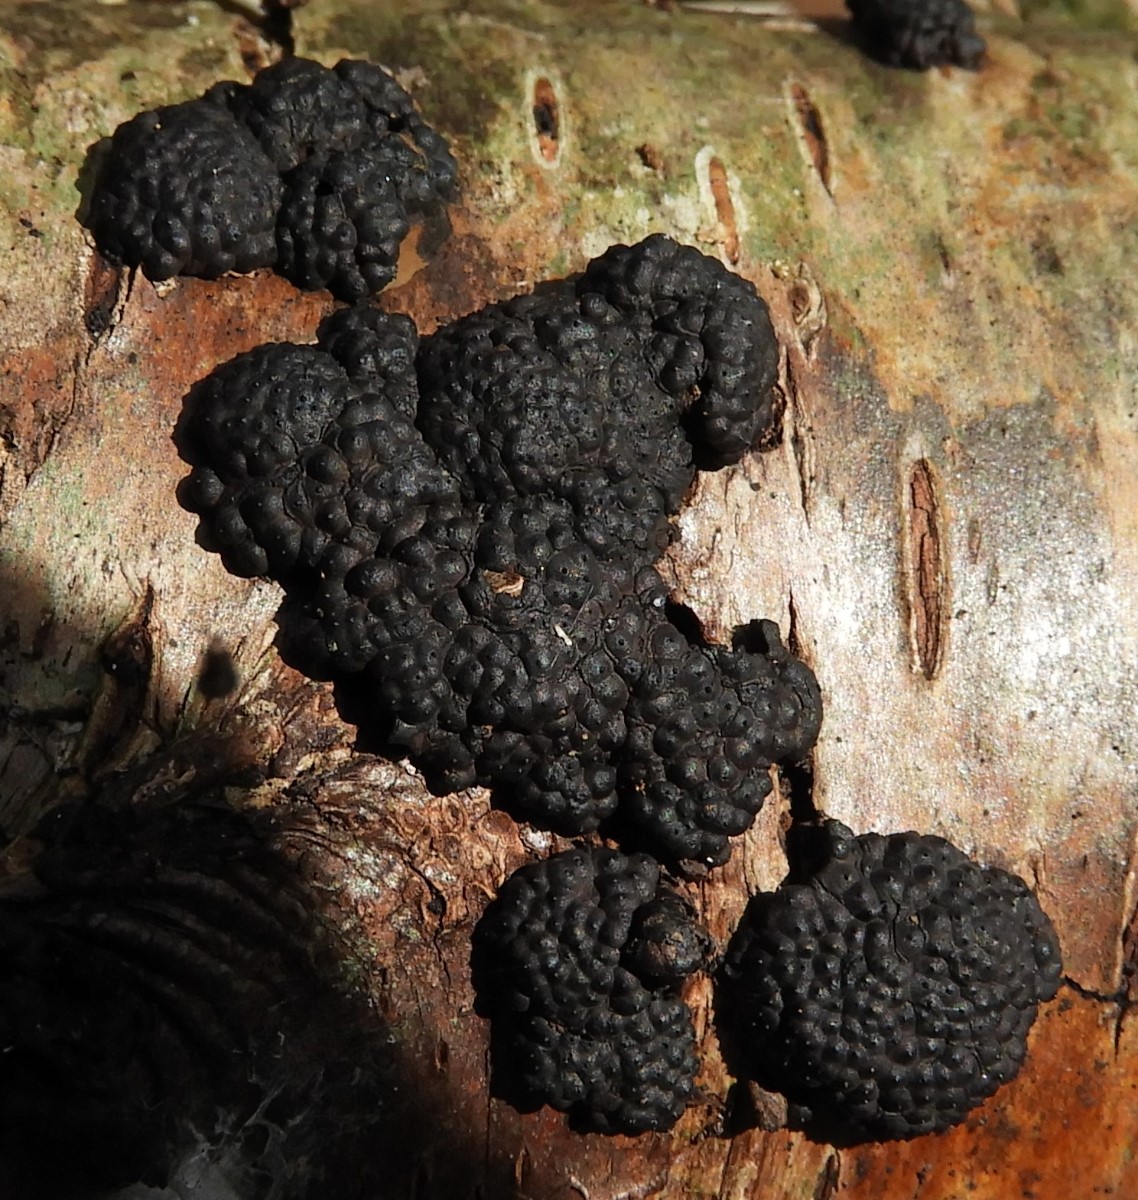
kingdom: Fungi
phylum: Ascomycota
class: Sordariomycetes
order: Xylariales
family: Hypoxylaceae
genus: Jackrogersella
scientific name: Jackrogersella multiformis
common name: foranderlig kulbær
